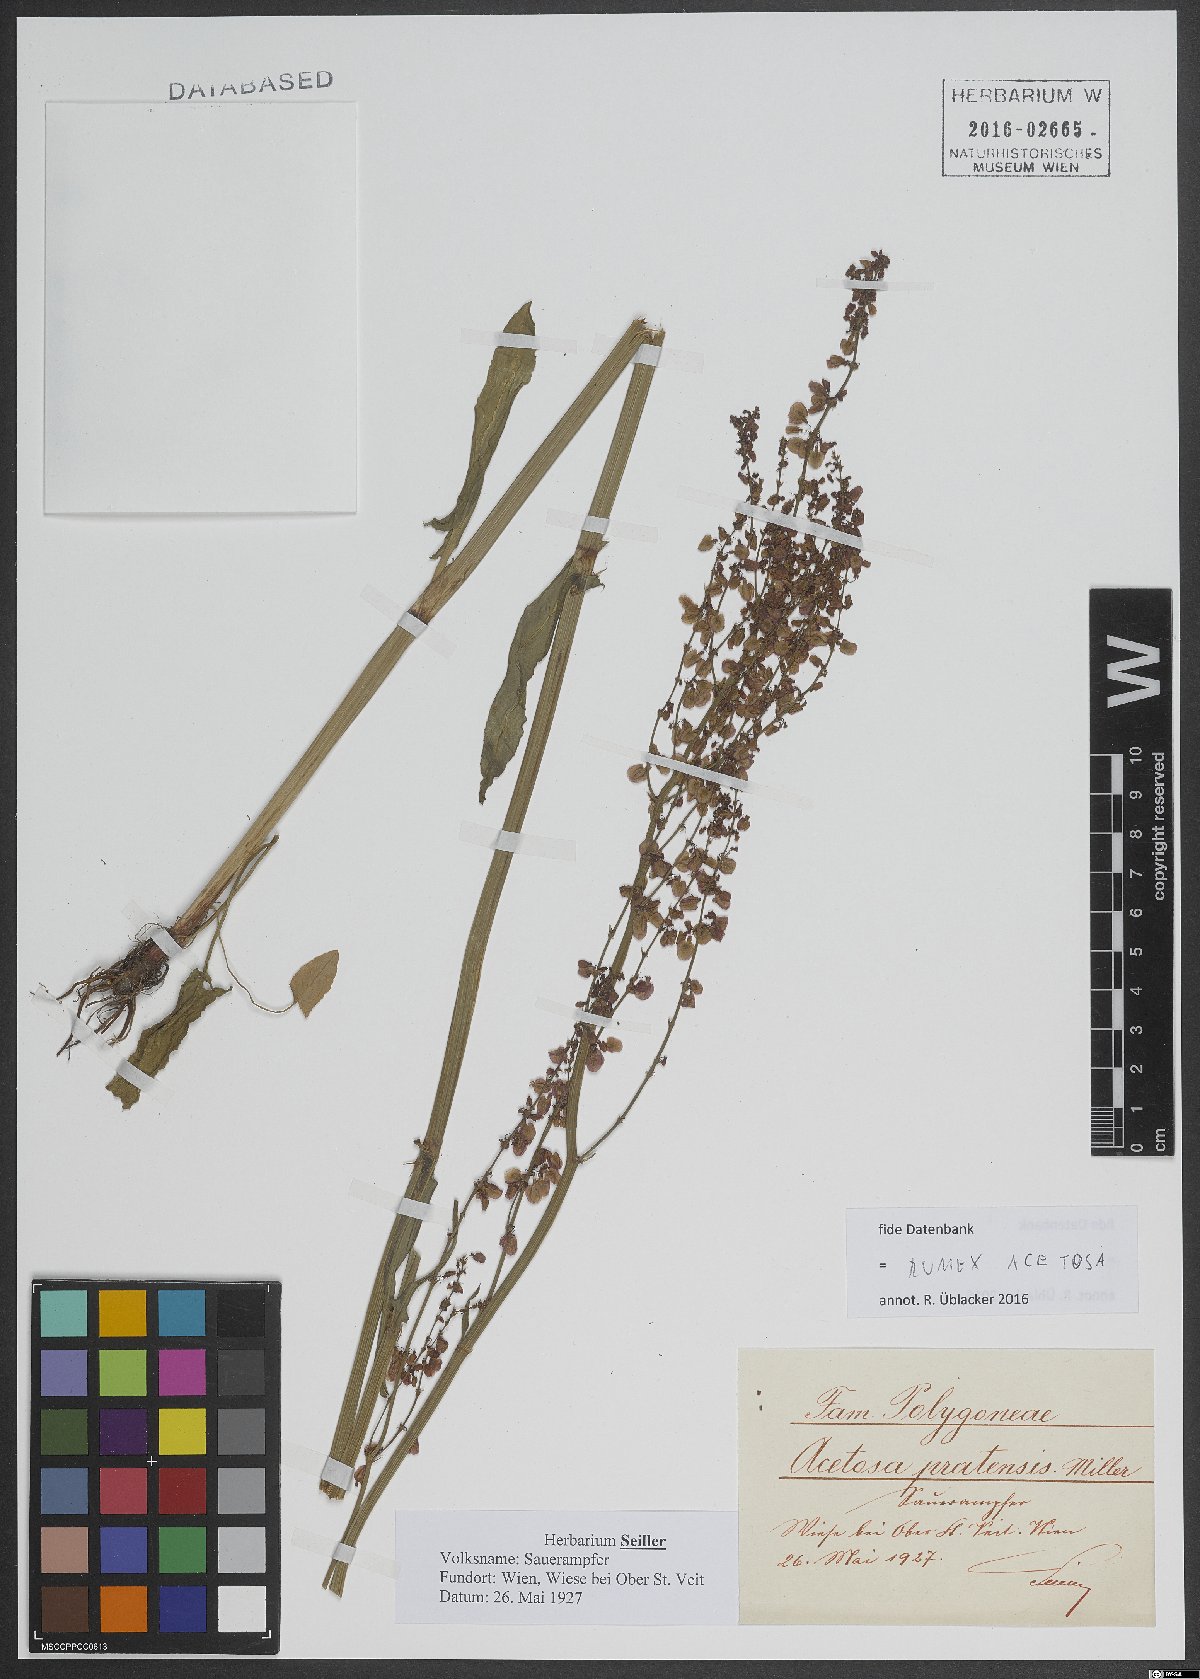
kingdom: Plantae
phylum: Tracheophyta
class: Magnoliopsida
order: Caryophyllales
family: Polygonaceae
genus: Rumex
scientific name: Rumex acetosa
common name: Garden sorrel
